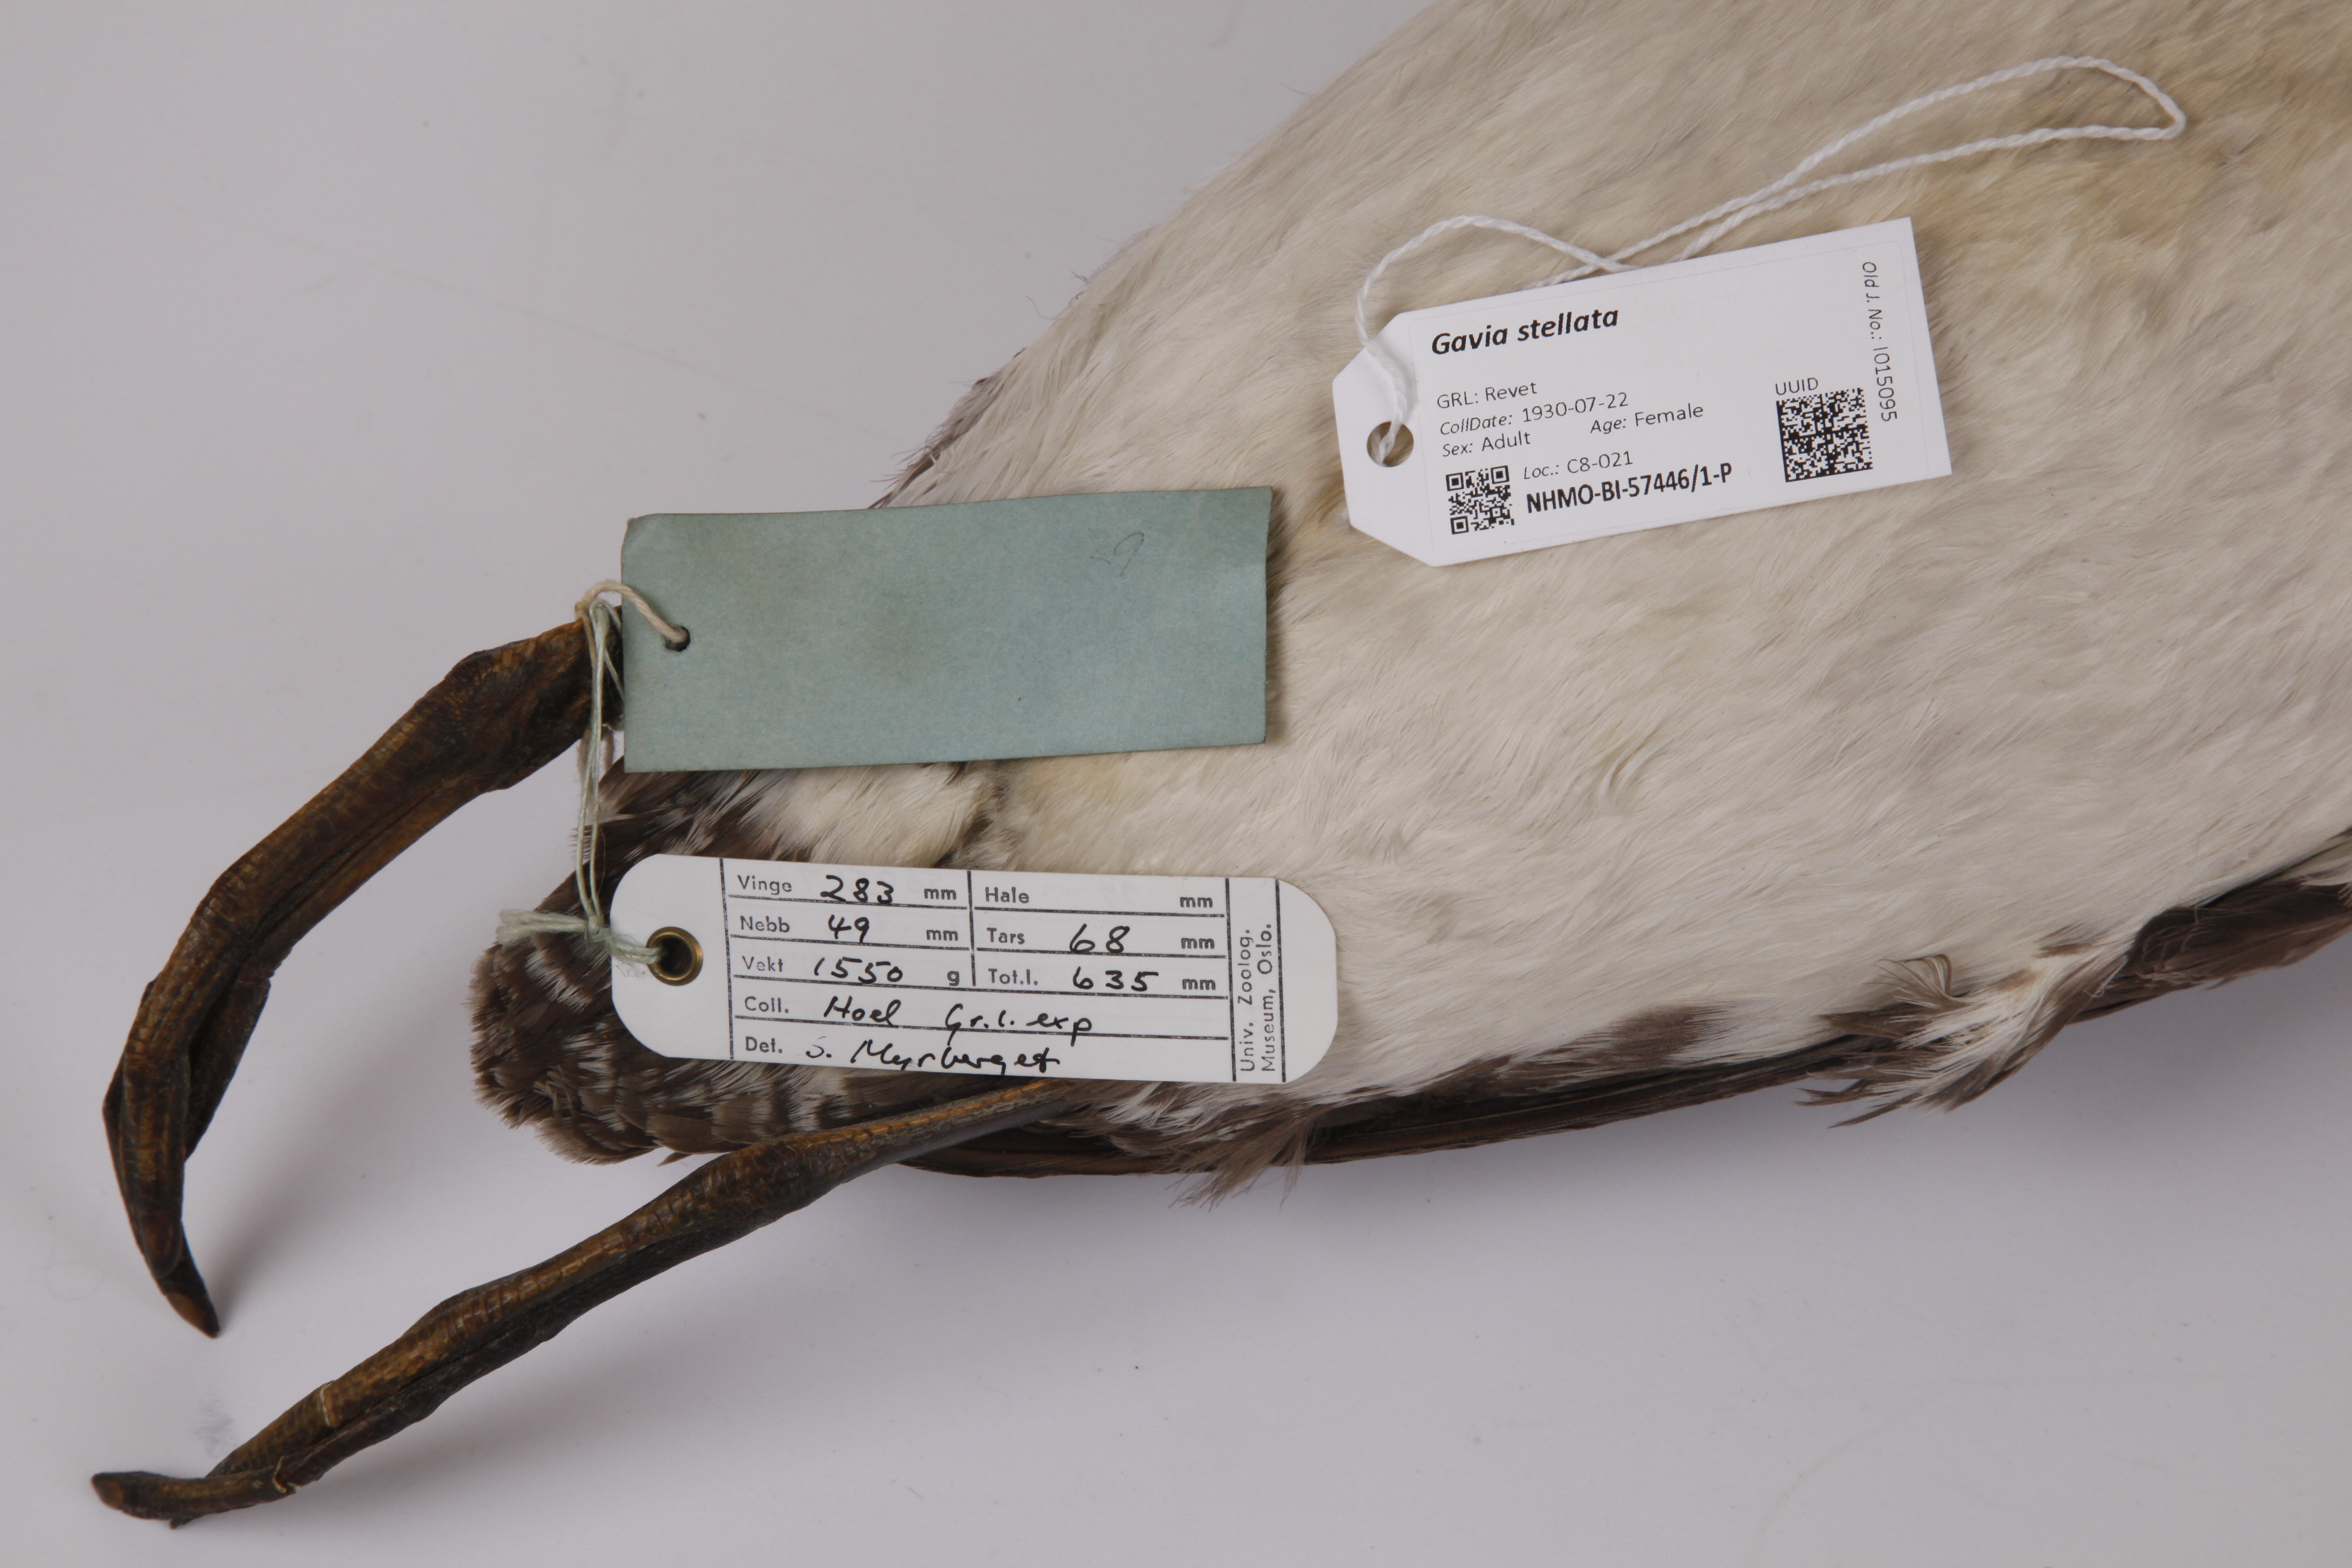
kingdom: Animalia
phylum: Chordata
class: Aves
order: Gaviiformes
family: Gaviidae
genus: Gavia
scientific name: Gavia stellata
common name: Red-throated loon
